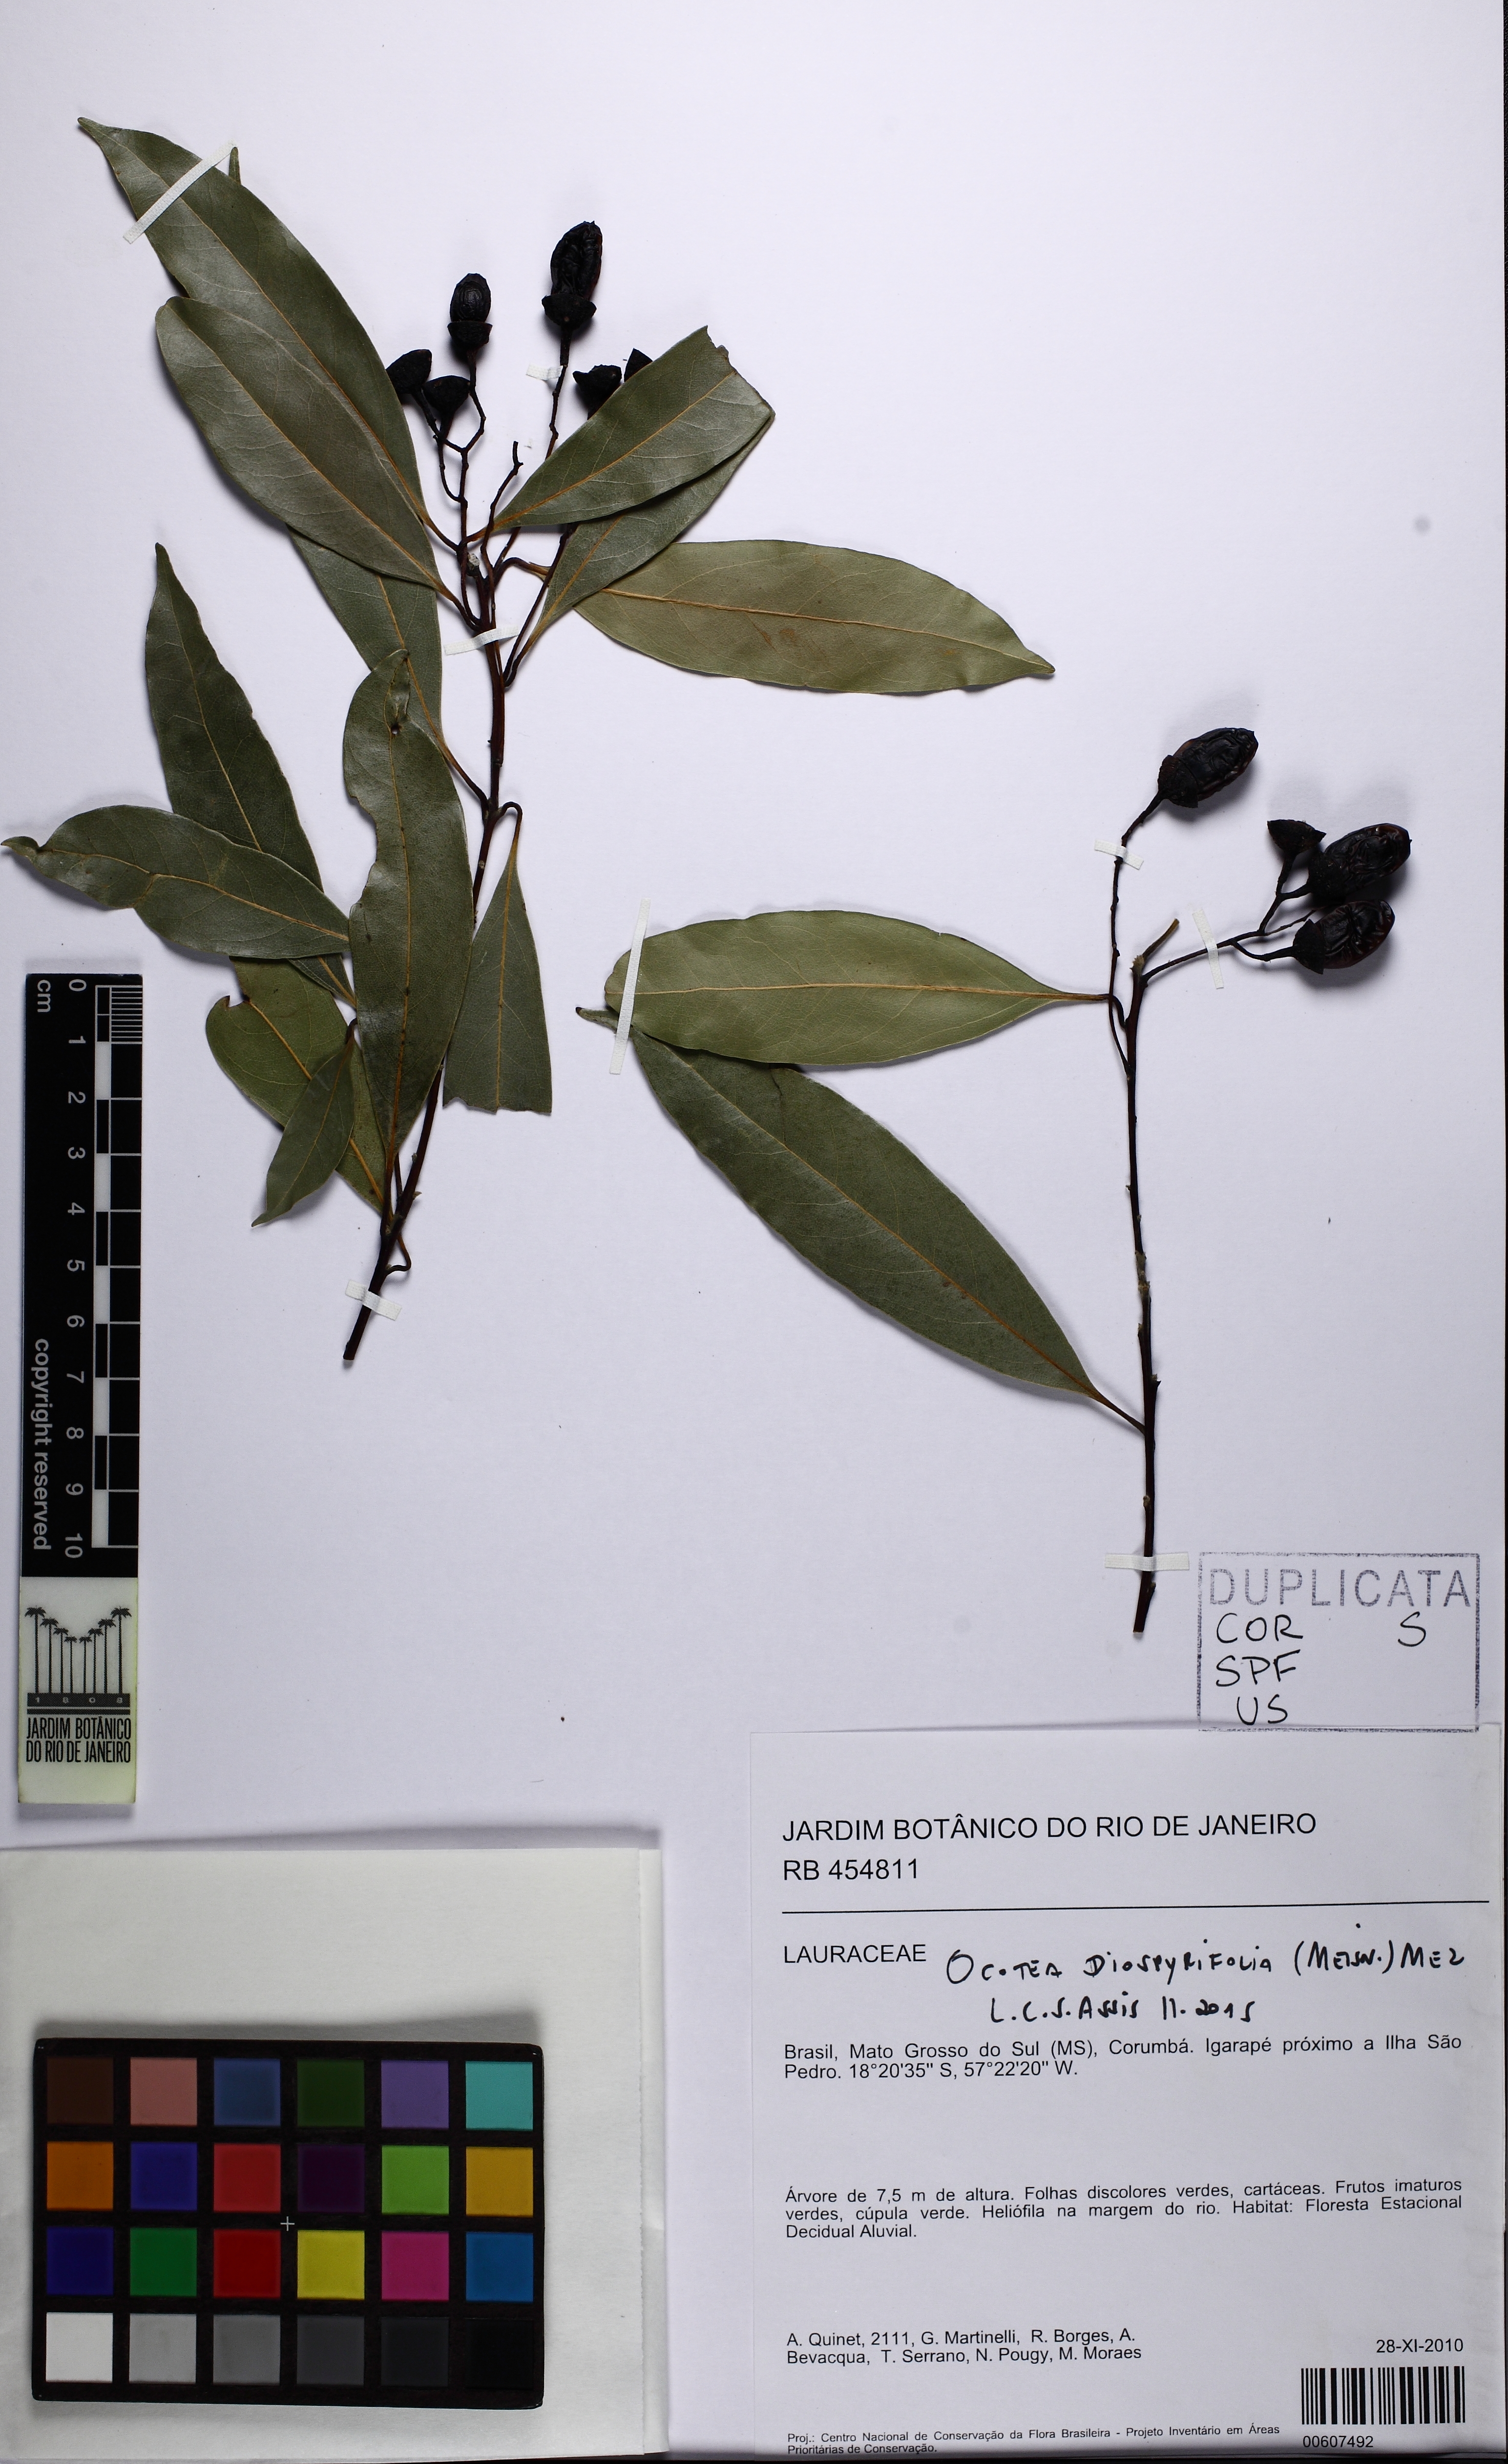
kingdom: Plantae
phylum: Tracheophyta
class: Magnoliopsida
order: Laurales
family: Lauraceae
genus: Ocotea
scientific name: Ocotea diospyrifolia
